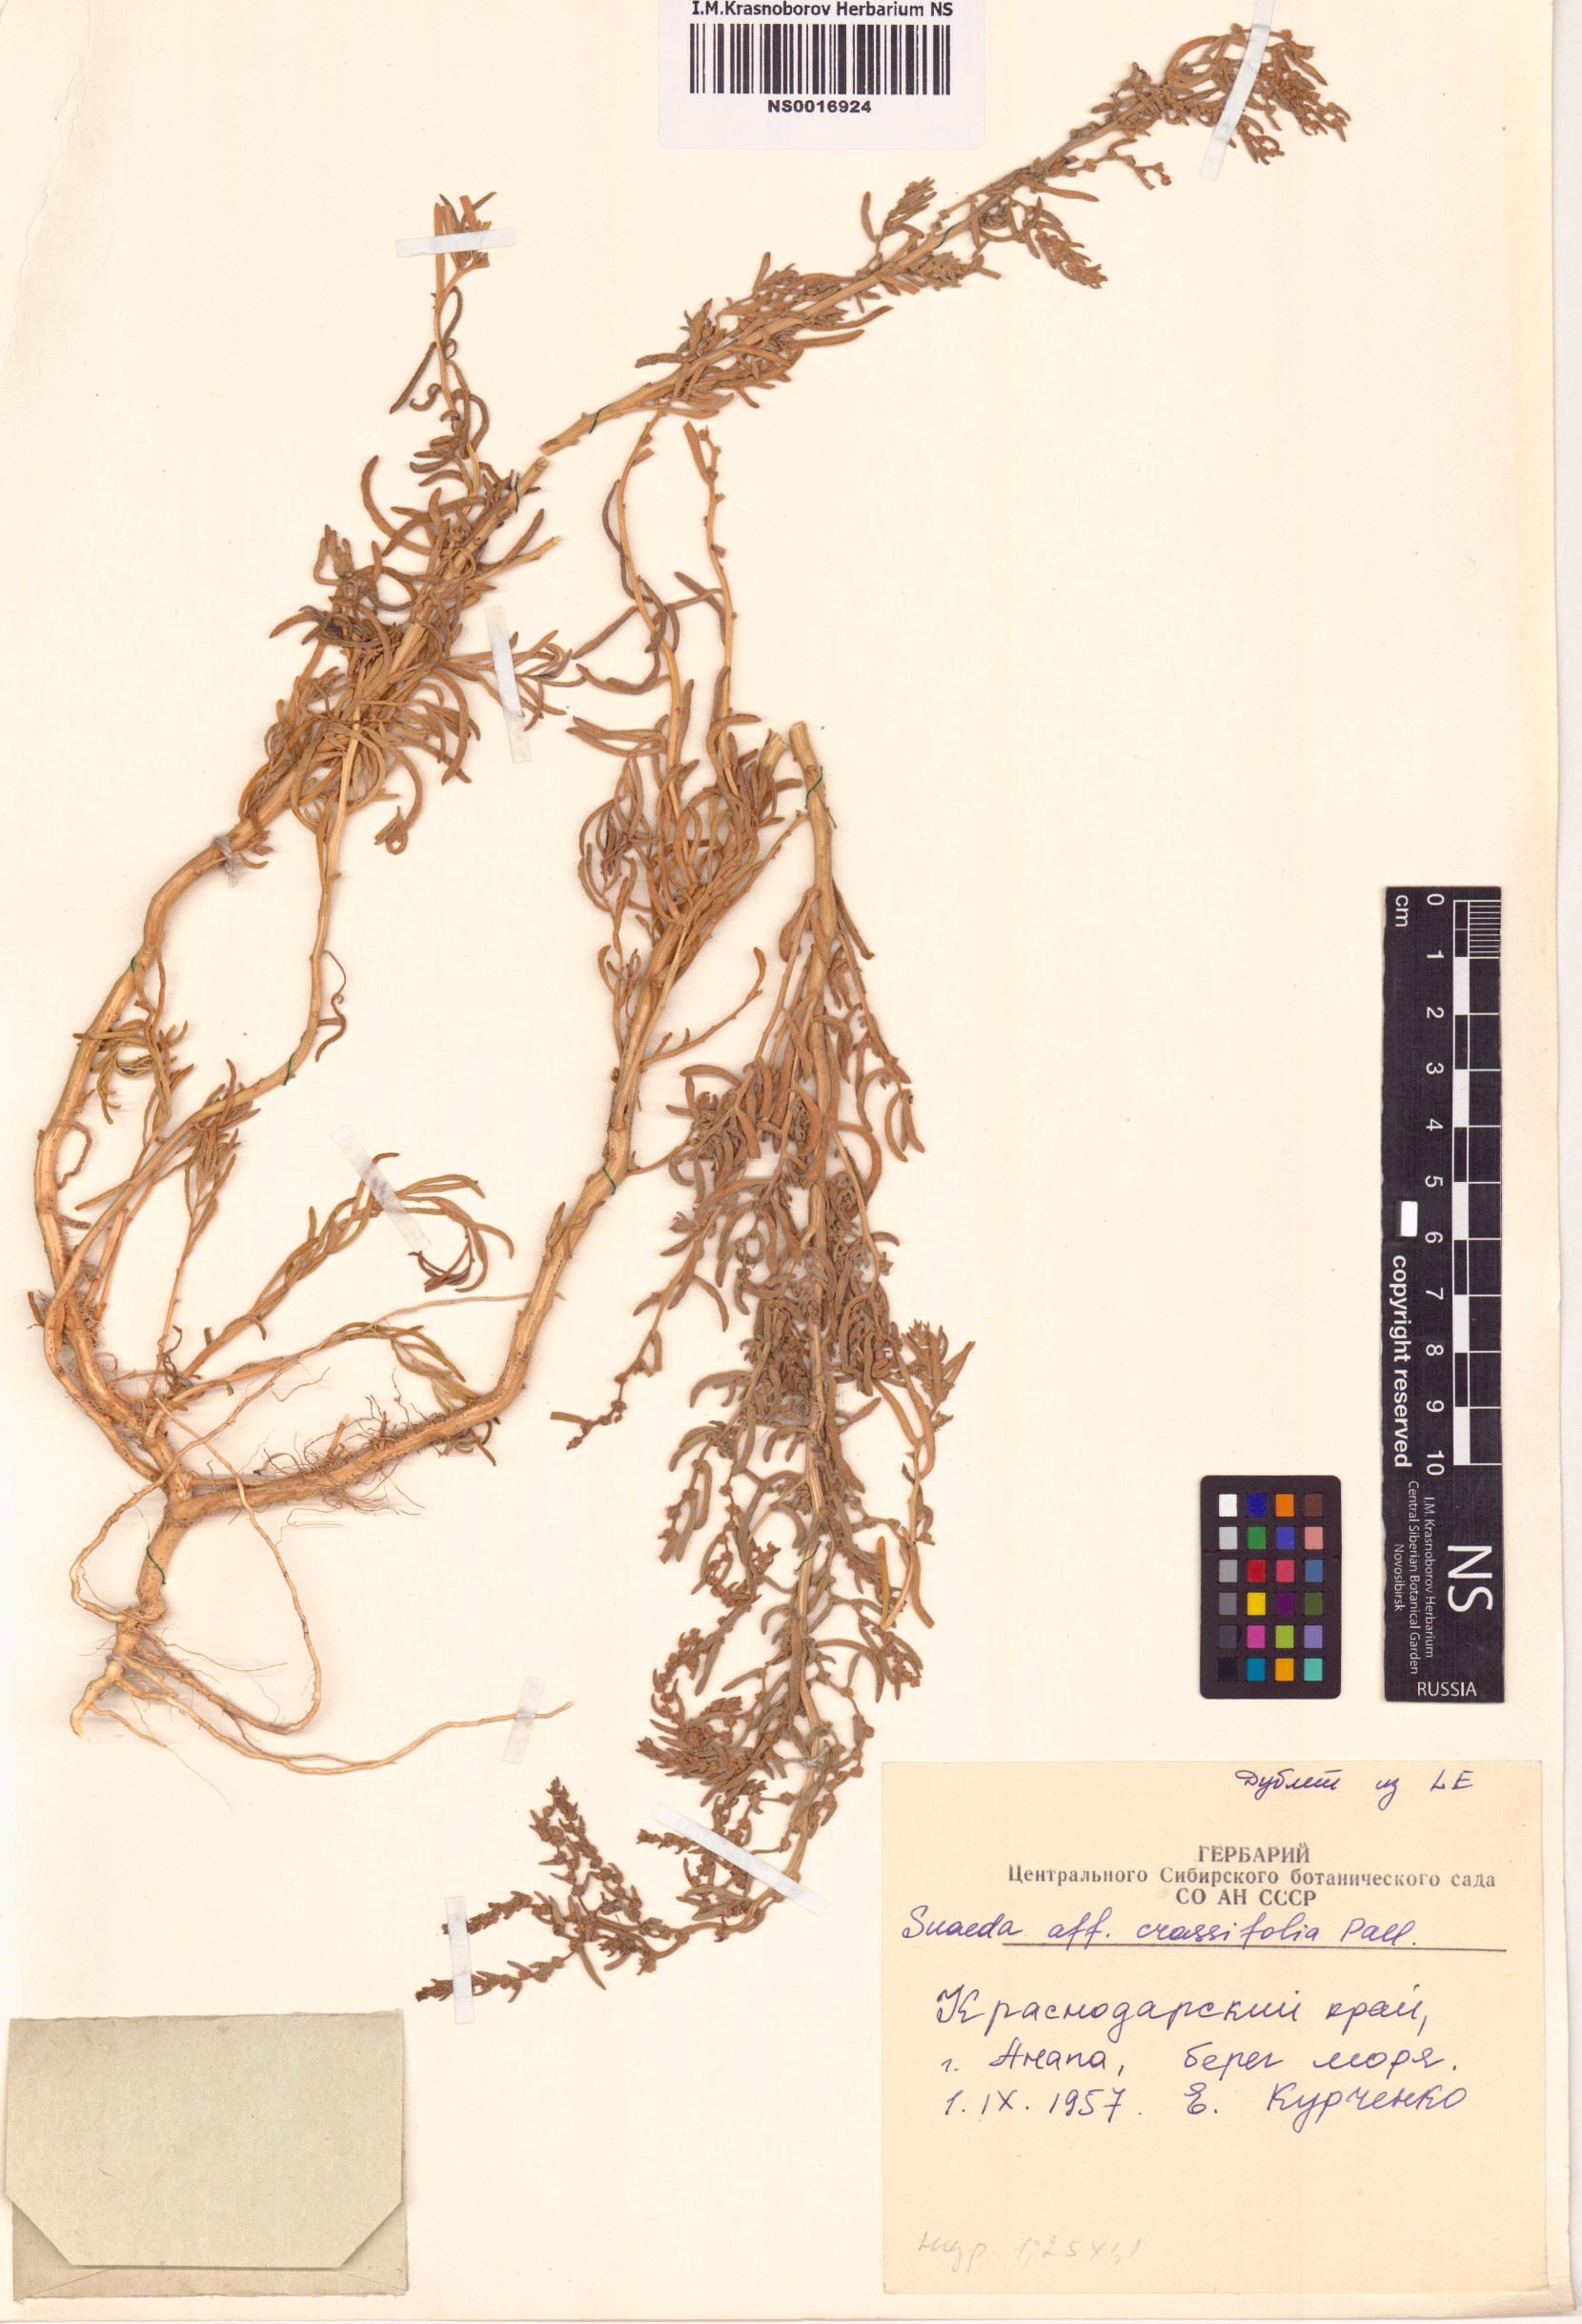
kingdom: Plantae
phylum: Tracheophyta
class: Magnoliopsida
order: Caryophyllales
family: Amaranthaceae
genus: Spirobassia
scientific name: Spirobassia hirsuta
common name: Hairy smotherweed
